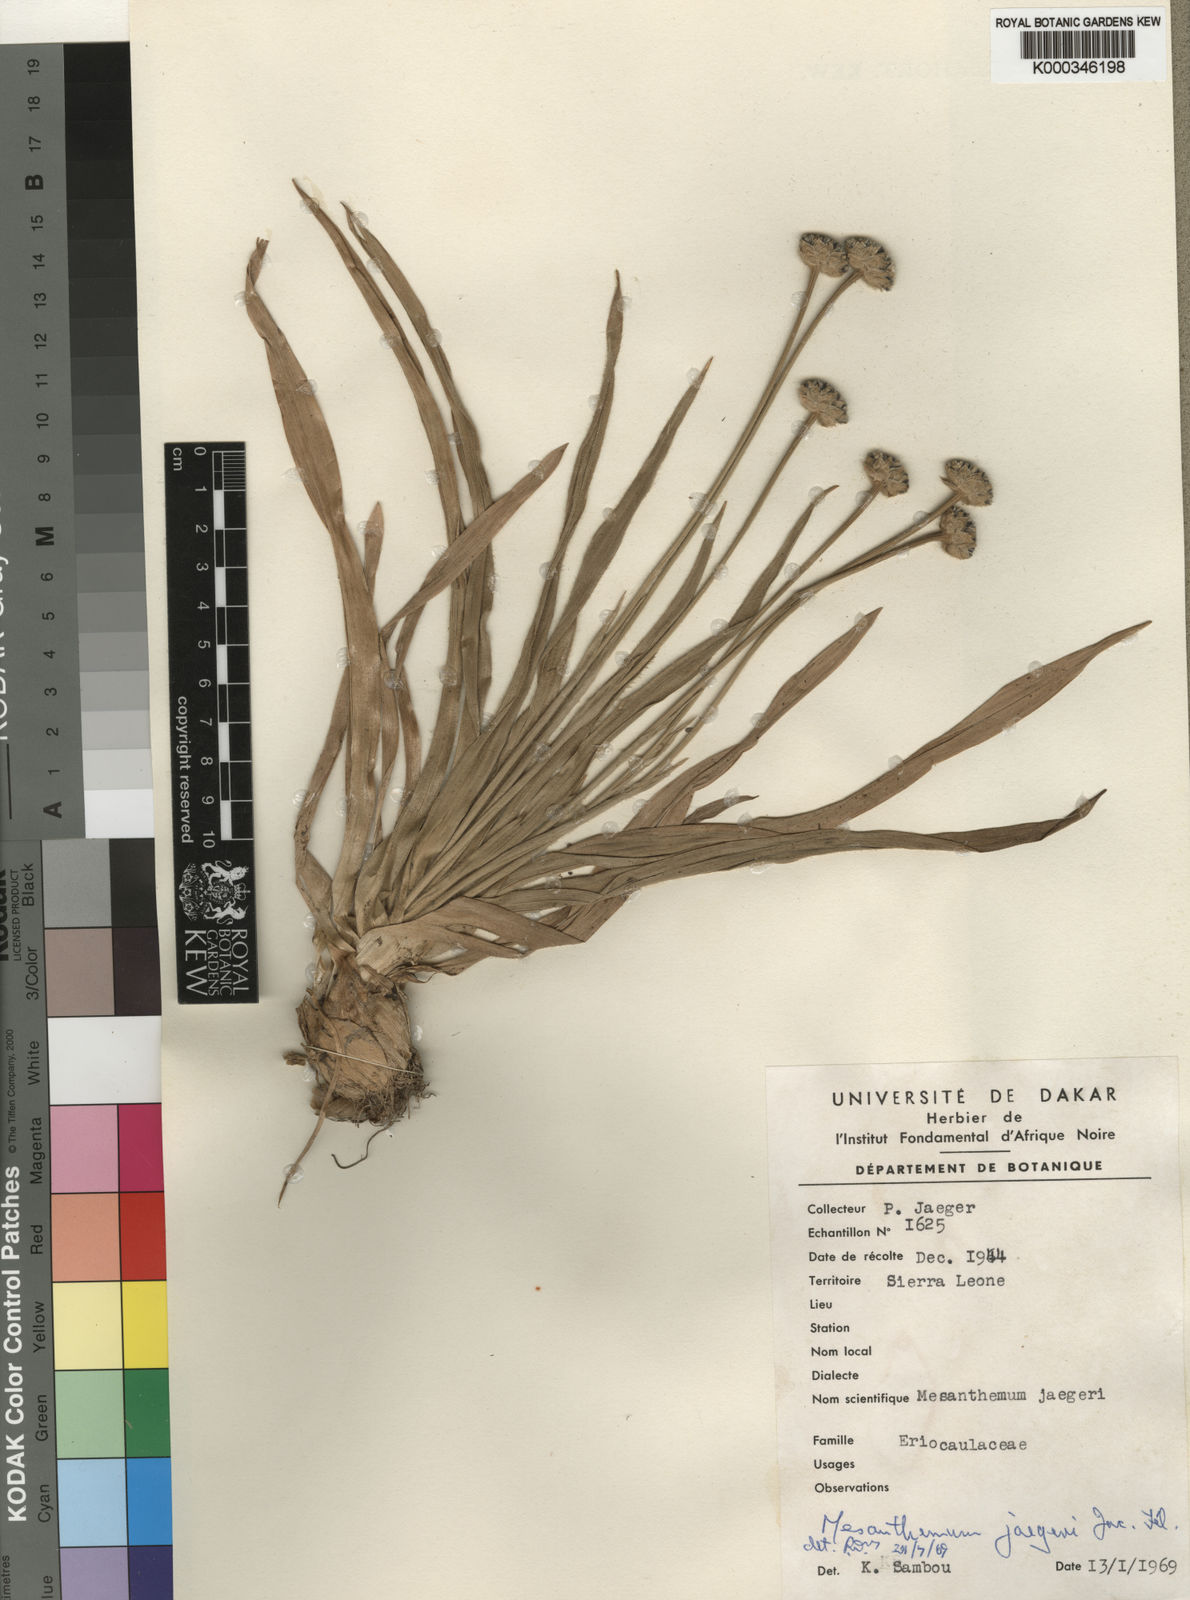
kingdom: Plantae
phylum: Tracheophyta
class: Liliopsida
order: Poales
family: Eriocaulaceae
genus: Mesanthemum
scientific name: Mesanthemum
